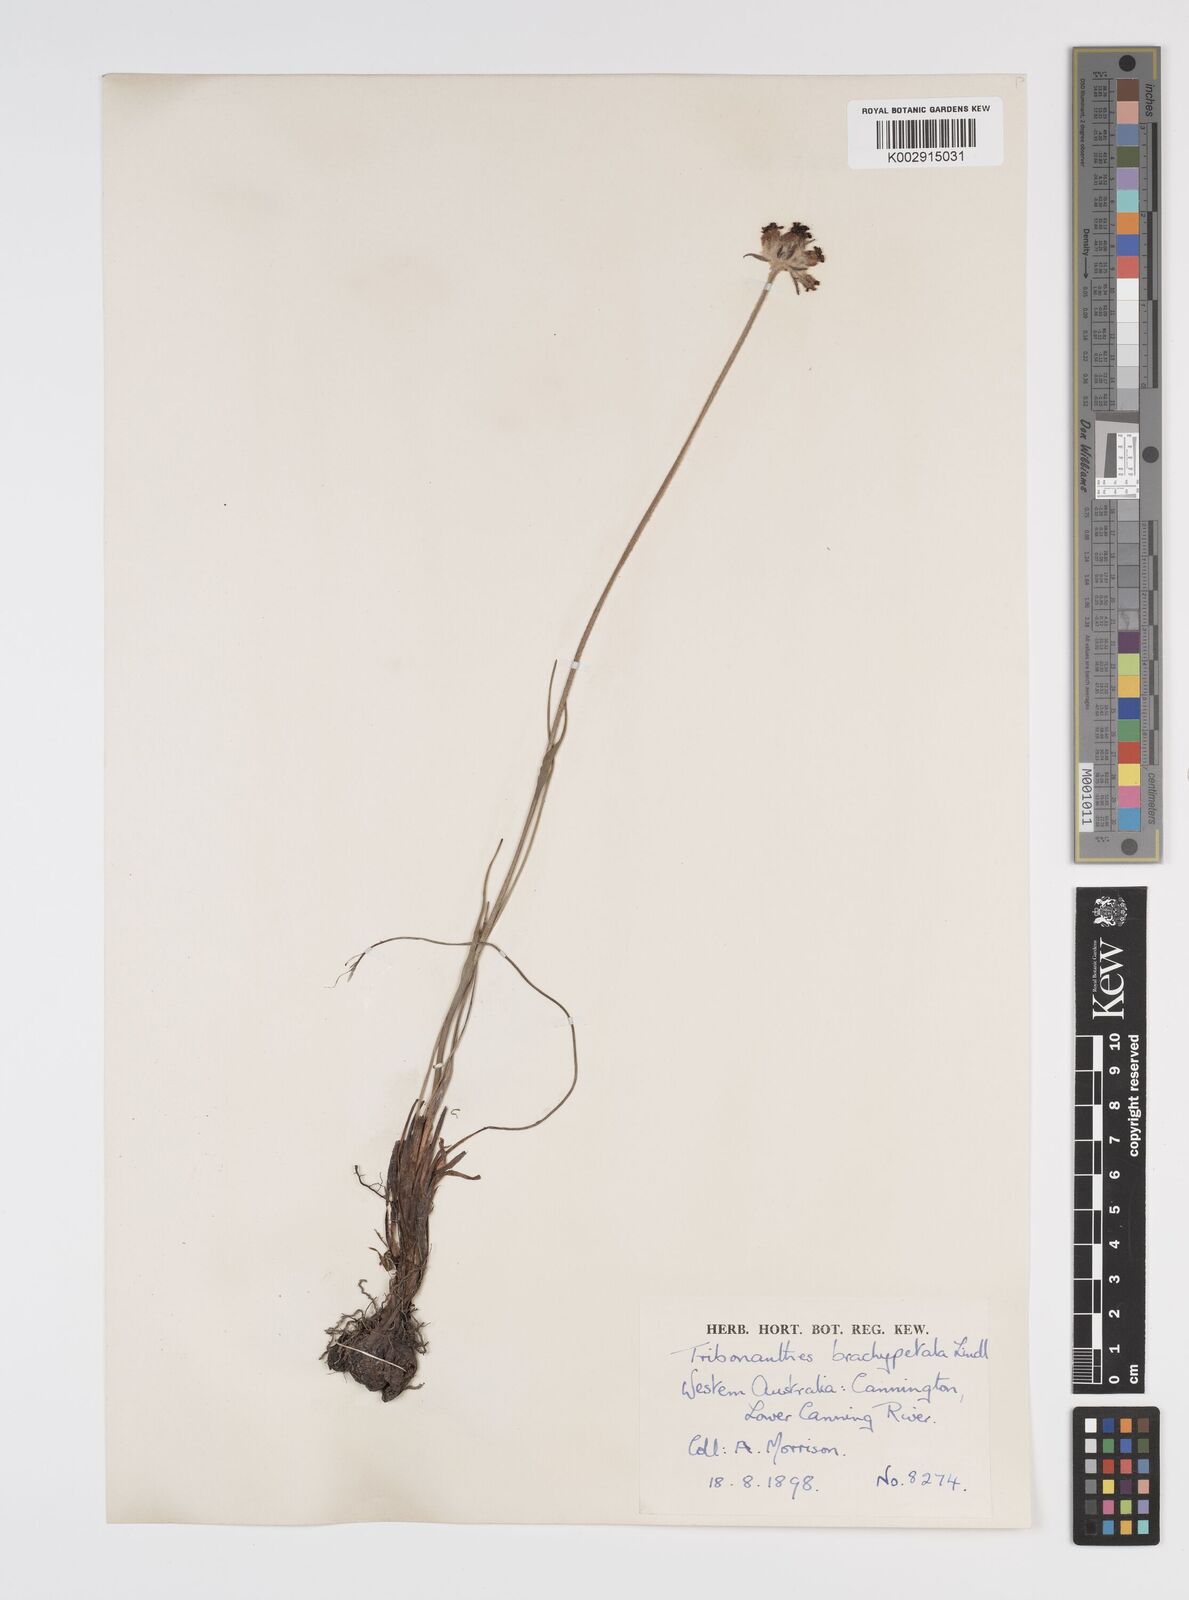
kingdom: Plantae
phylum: Tracheophyta
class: Liliopsida
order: Commelinales
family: Haemodoraceae
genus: Tribonanthes
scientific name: Tribonanthes brachypetala
